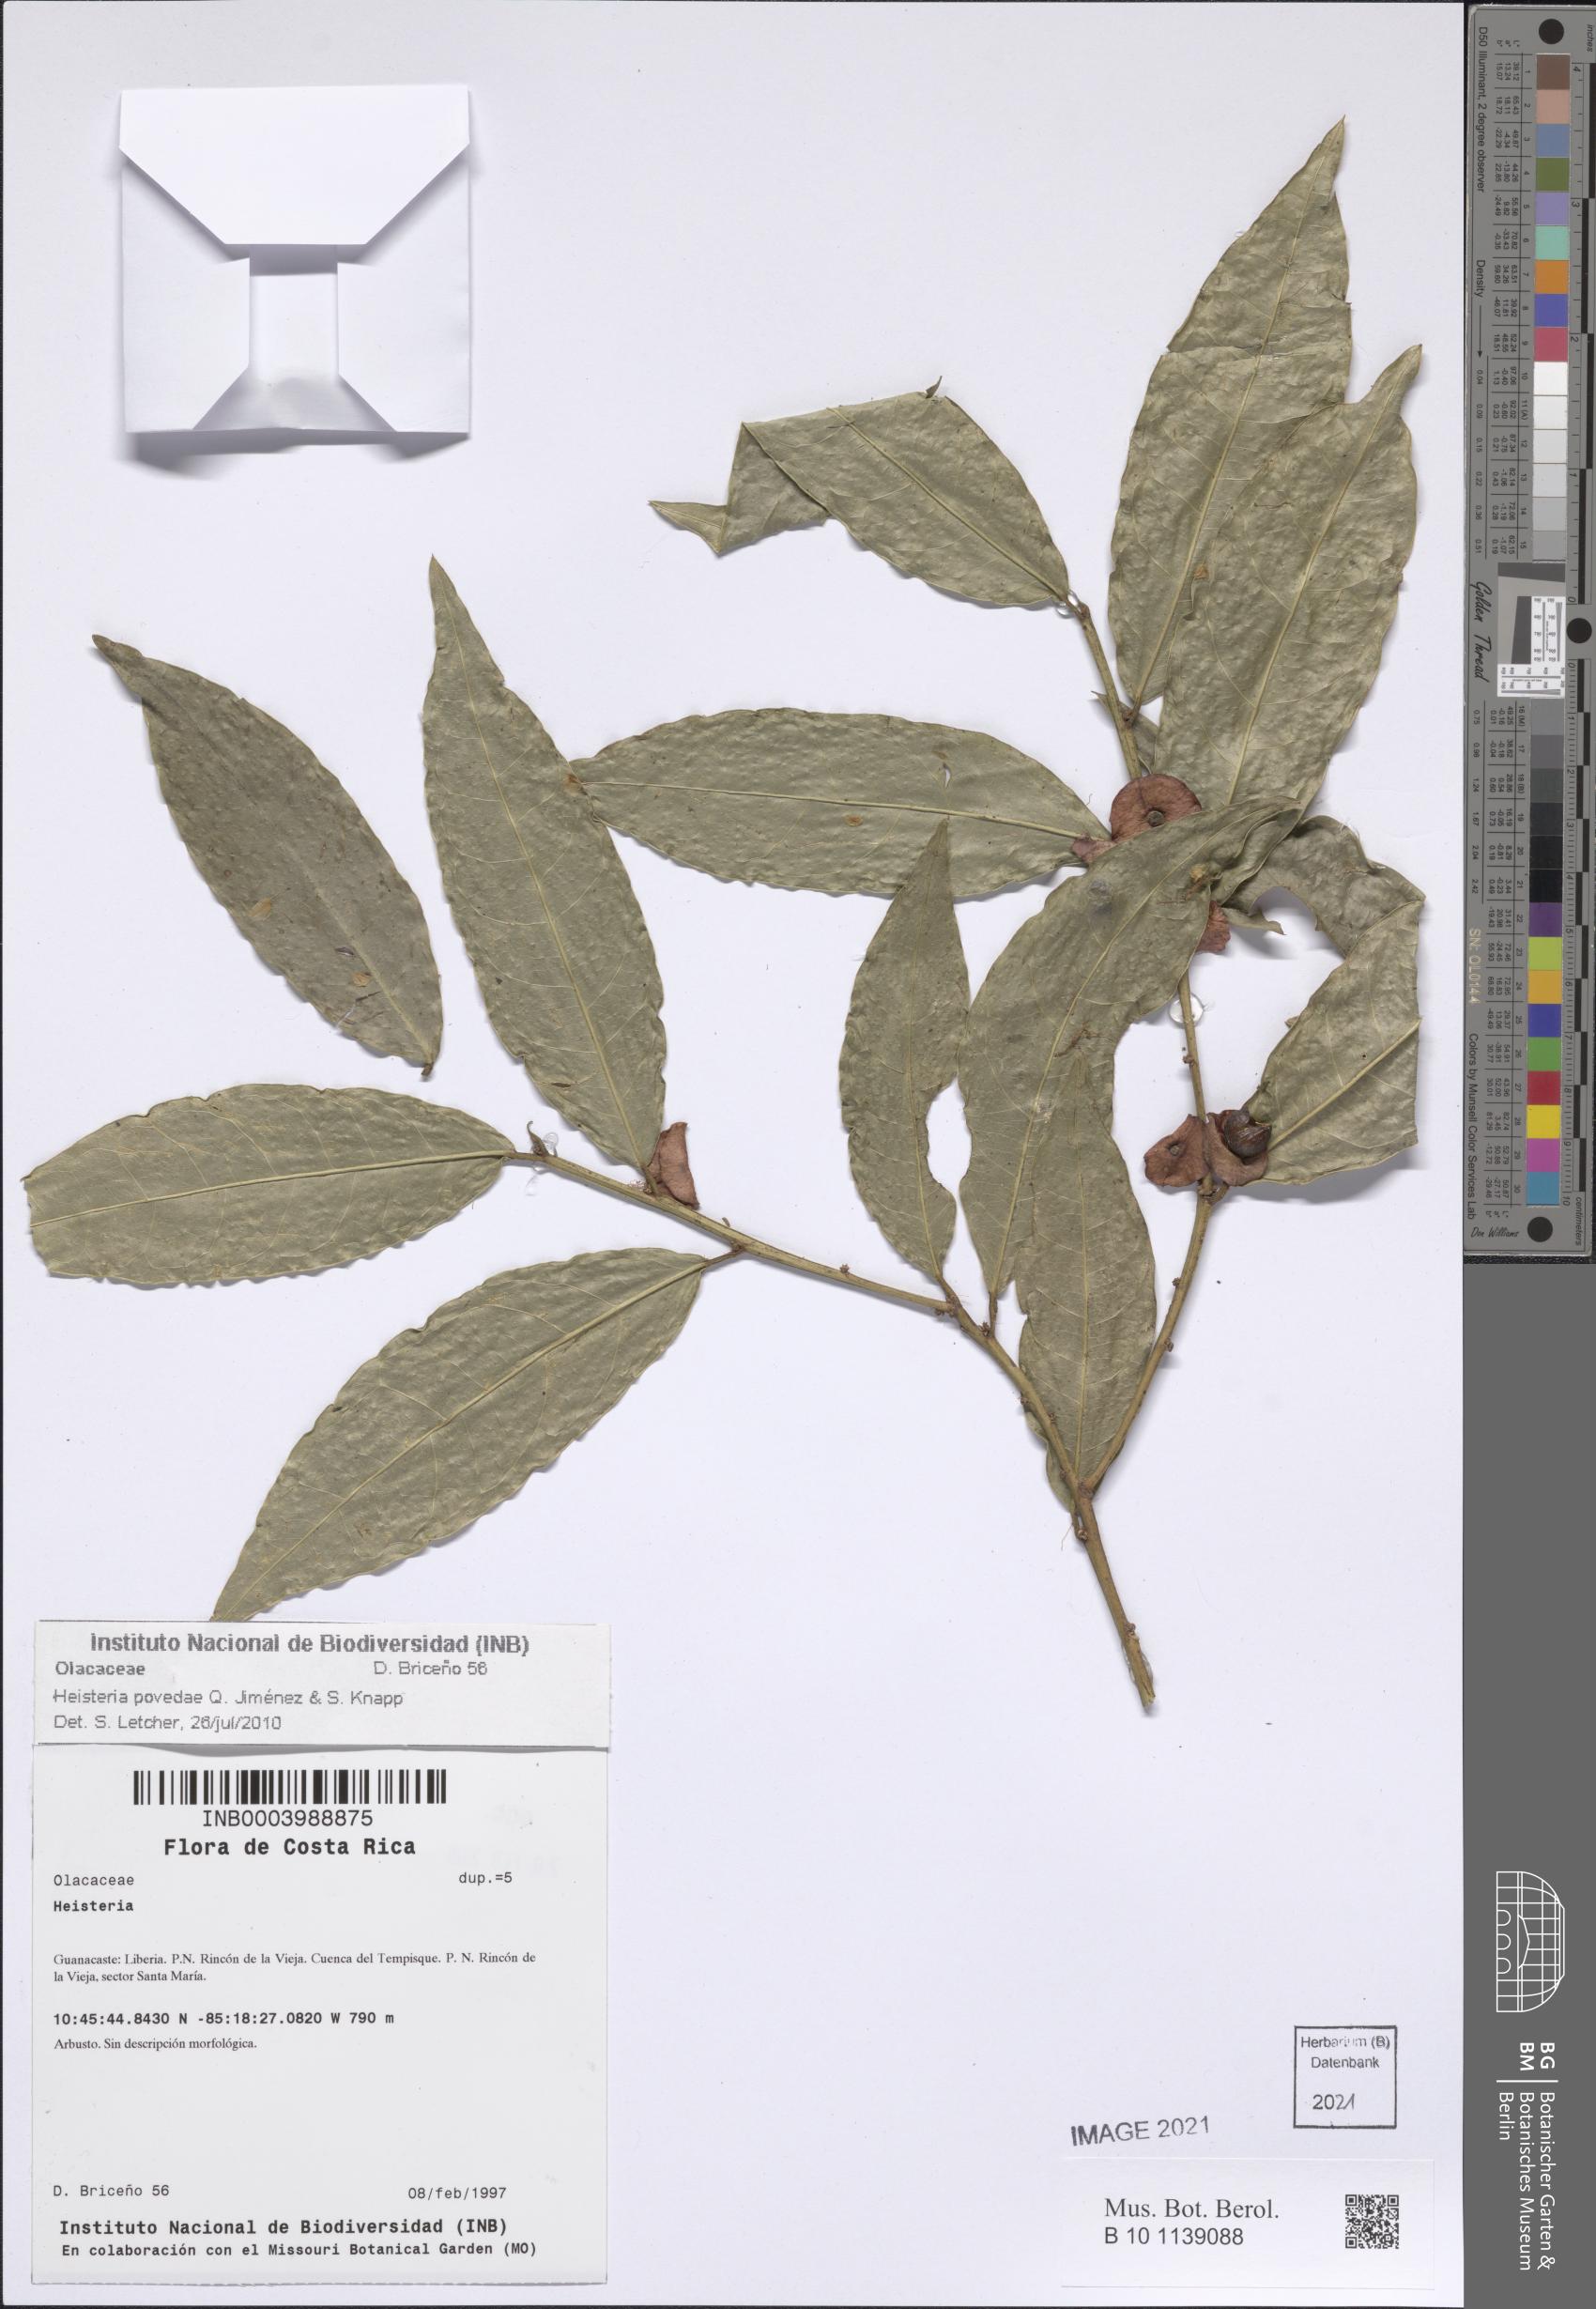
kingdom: Plantae
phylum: Tracheophyta
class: Magnoliopsida
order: Santalales
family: Erythropalaceae
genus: Heisteria
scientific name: Heisteria povedae
